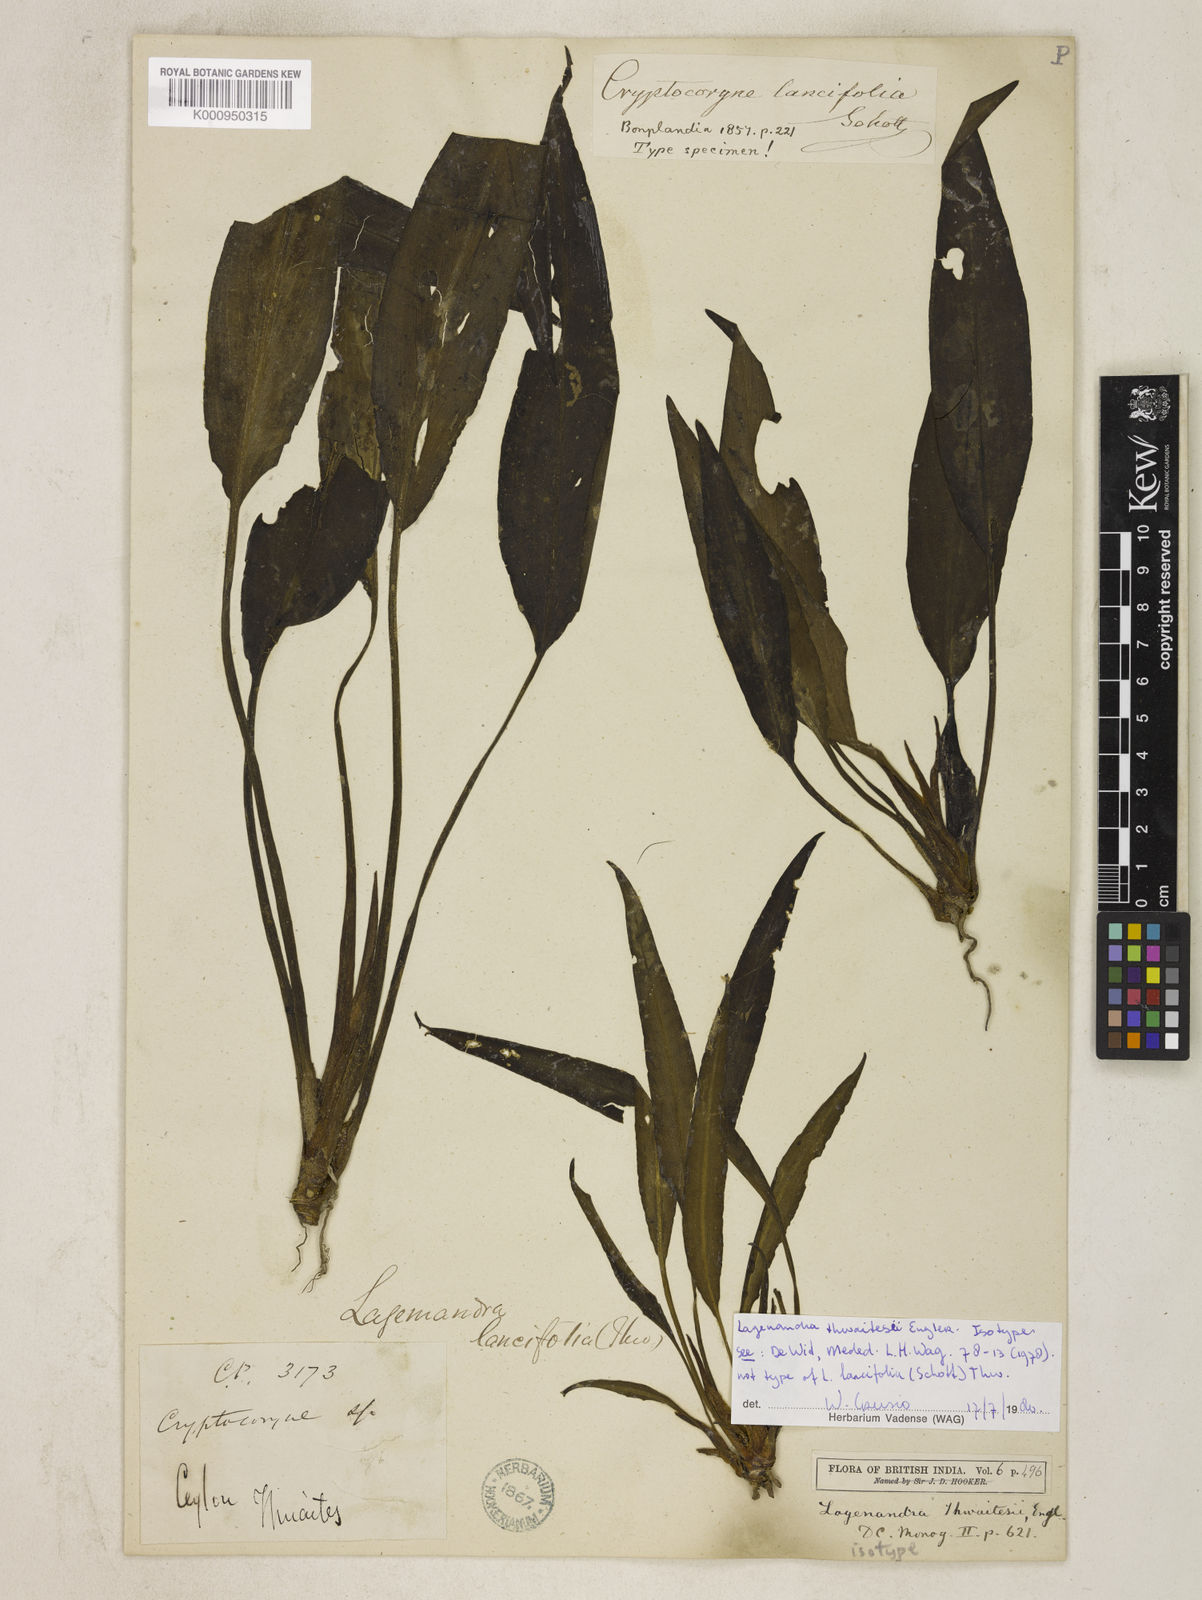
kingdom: Plantae
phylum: Tracheophyta
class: Liliopsida
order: Alismatales
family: Araceae
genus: Lagenandra
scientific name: Lagenandra thwaitesii
